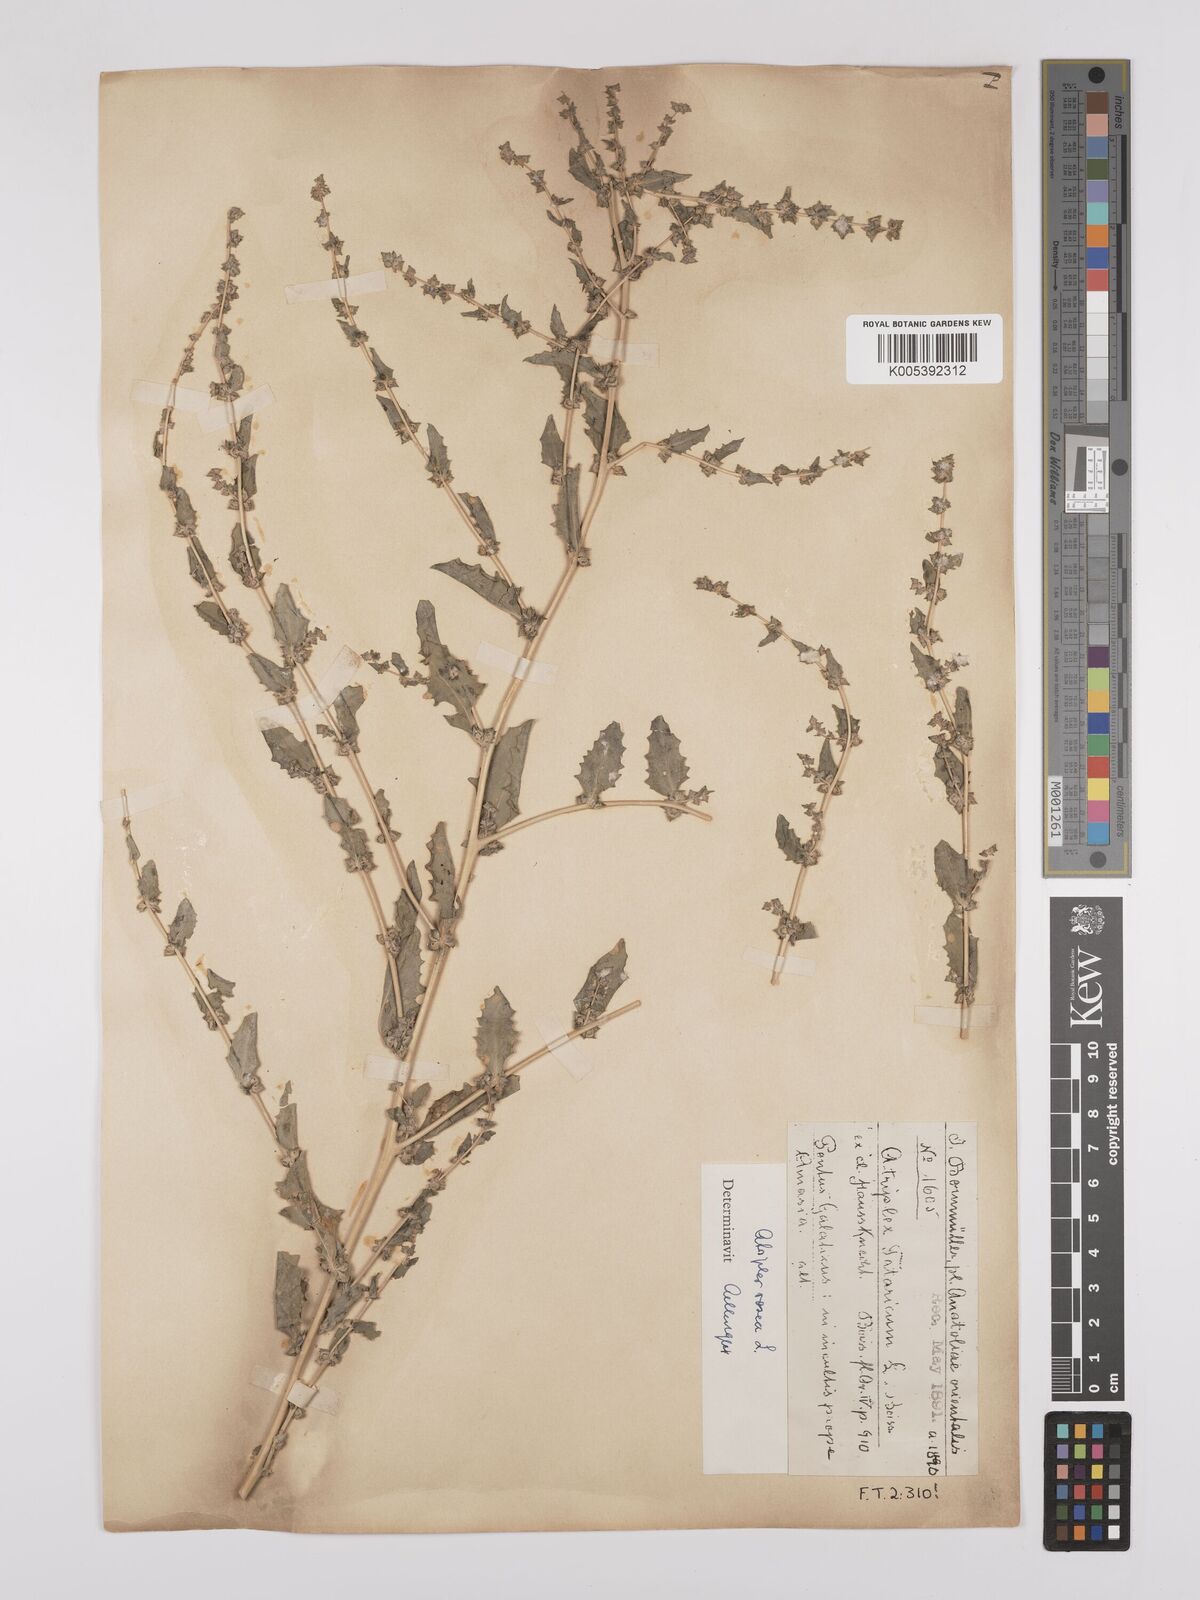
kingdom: Plantae
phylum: Tracheophyta
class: Magnoliopsida
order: Caryophyllales
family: Amaranthaceae
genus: Atriplex
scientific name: Atriplex
